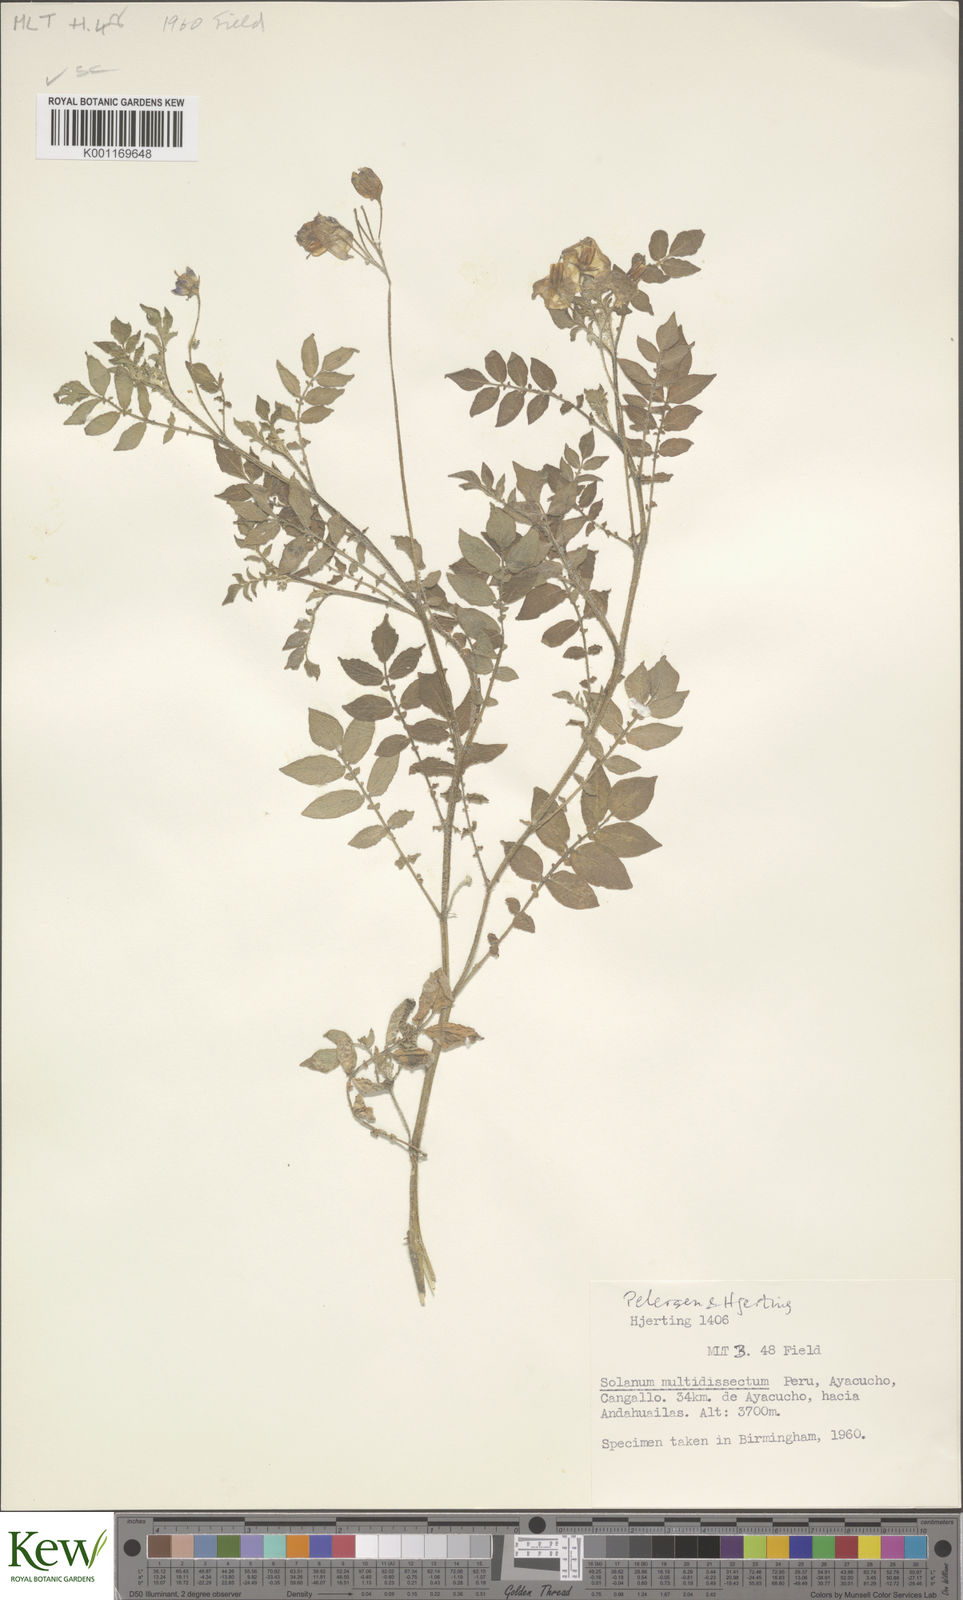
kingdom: Plantae
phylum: Tracheophyta
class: Magnoliopsida
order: Solanales
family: Solanaceae
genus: Solanum
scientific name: Solanum candolleanum
